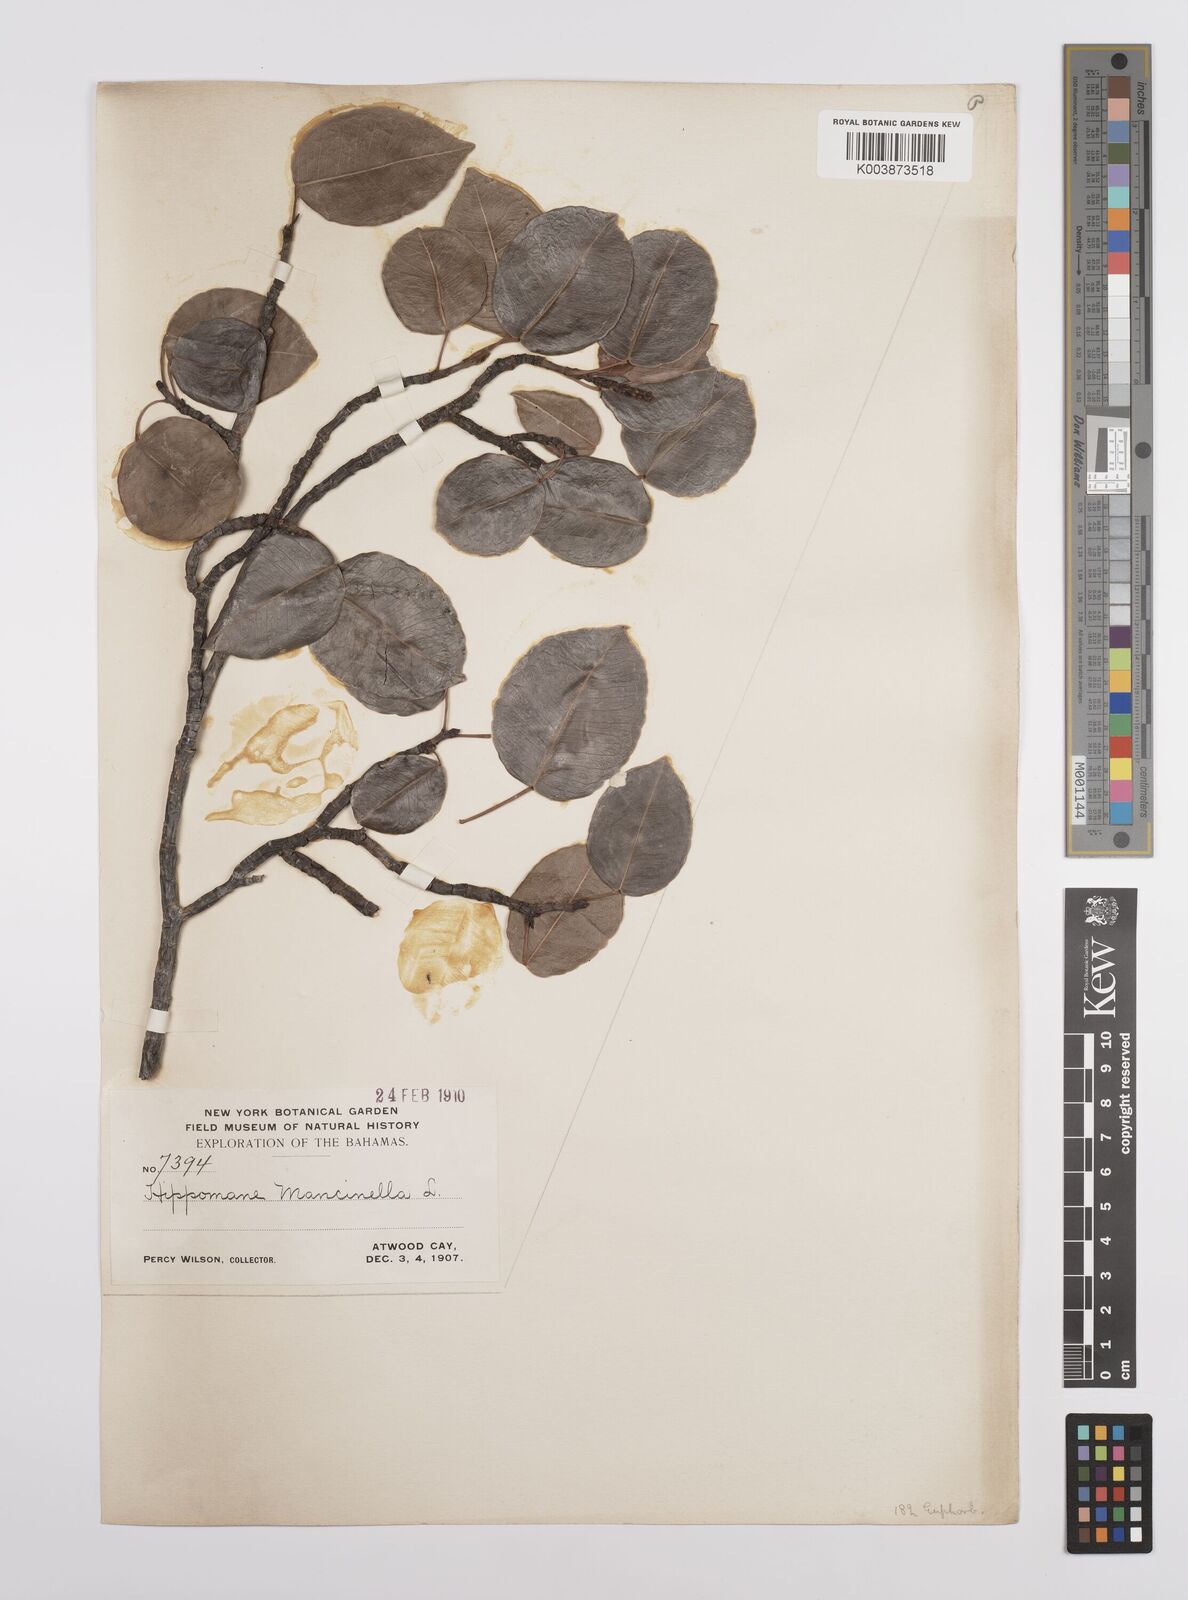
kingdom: Plantae
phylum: Tracheophyta
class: Magnoliopsida
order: Malpighiales
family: Euphorbiaceae
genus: Hippomane
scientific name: Hippomane mancinella
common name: Manchineel
